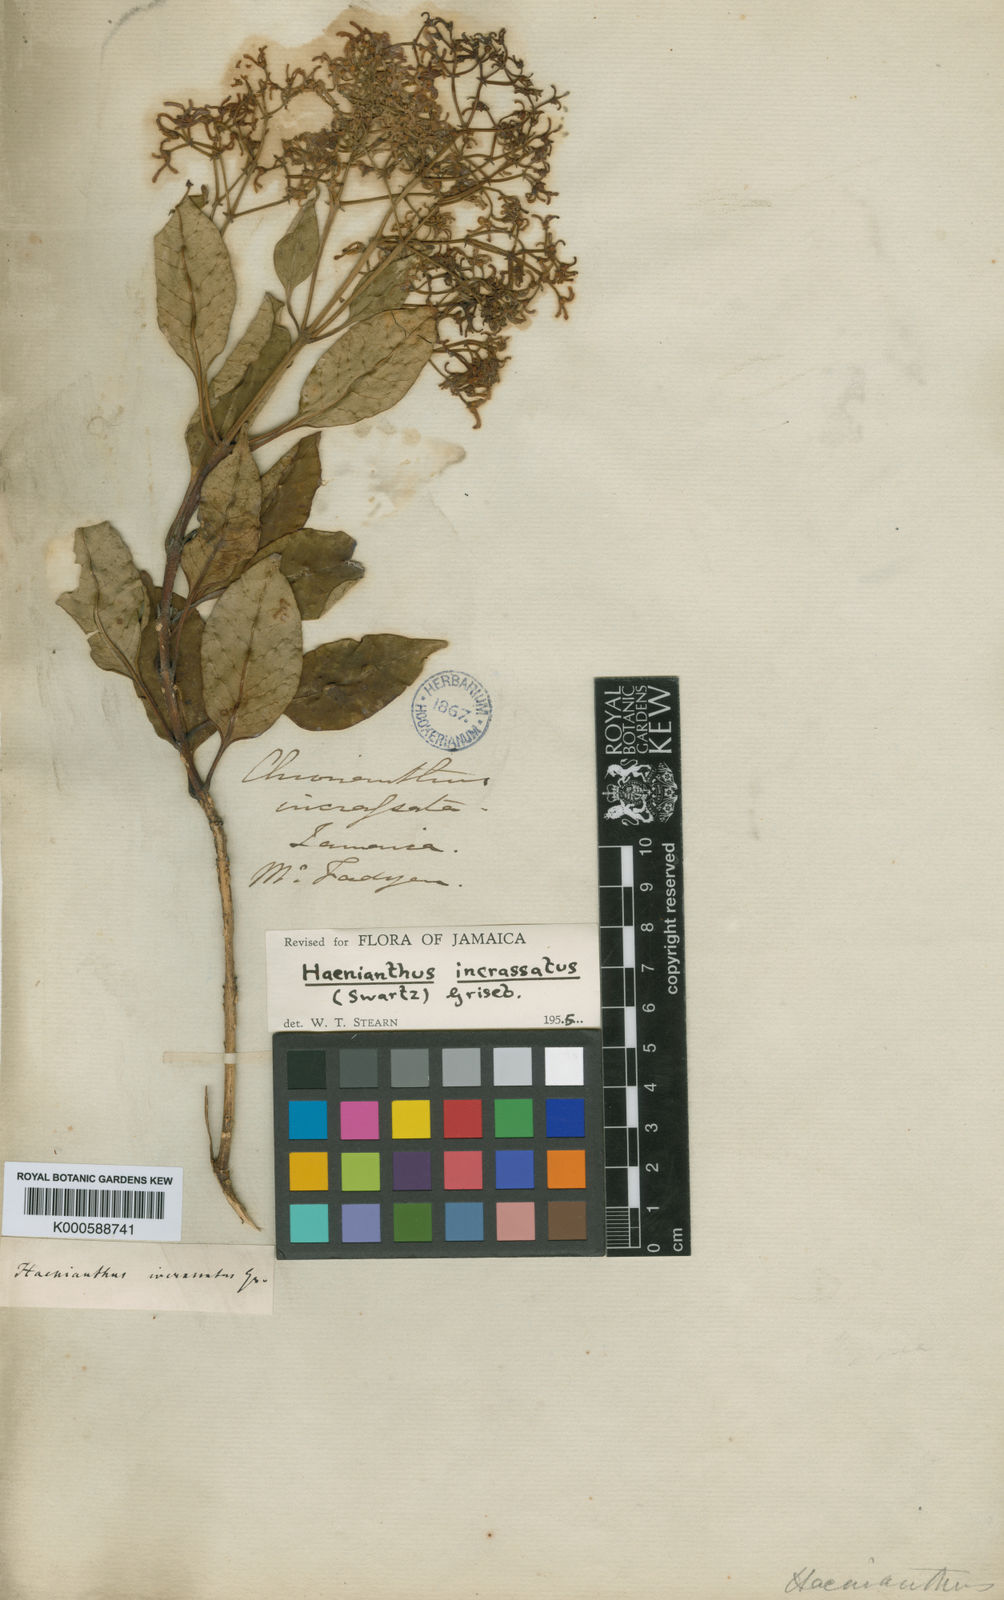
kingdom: Plantae
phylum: Tracheophyta
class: Magnoliopsida
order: Lamiales
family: Oleaceae
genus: Haenianthus
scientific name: Haenianthus incrassatus
